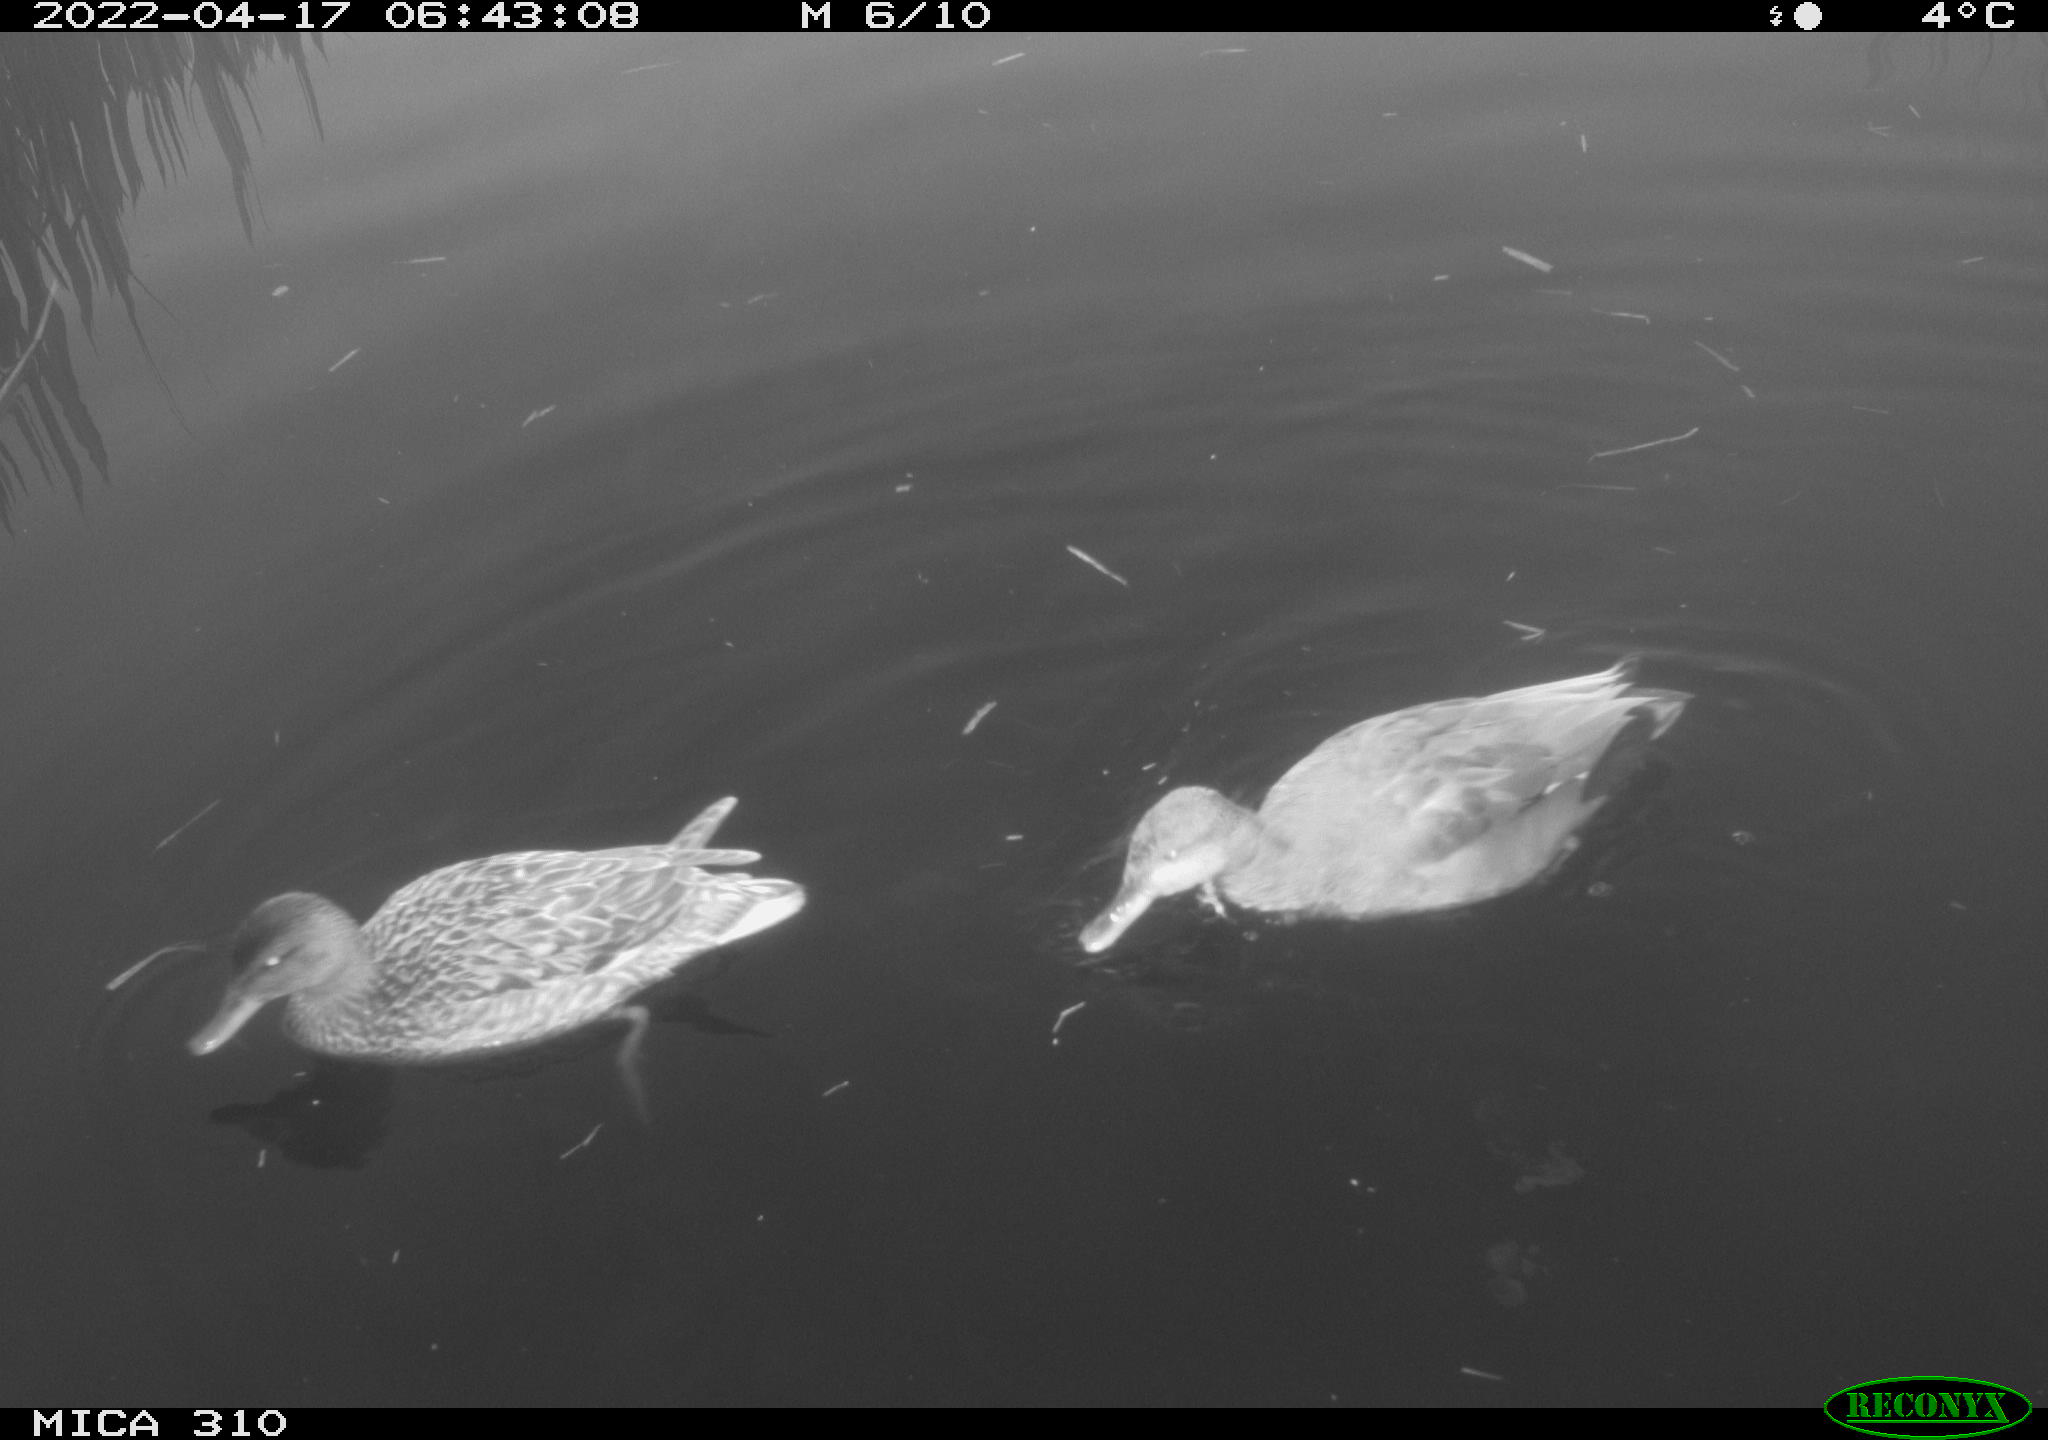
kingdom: Animalia
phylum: Chordata
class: Aves
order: Anseriformes
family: Anatidae
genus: Mareca
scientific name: Mareca strepera
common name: Gadwall
